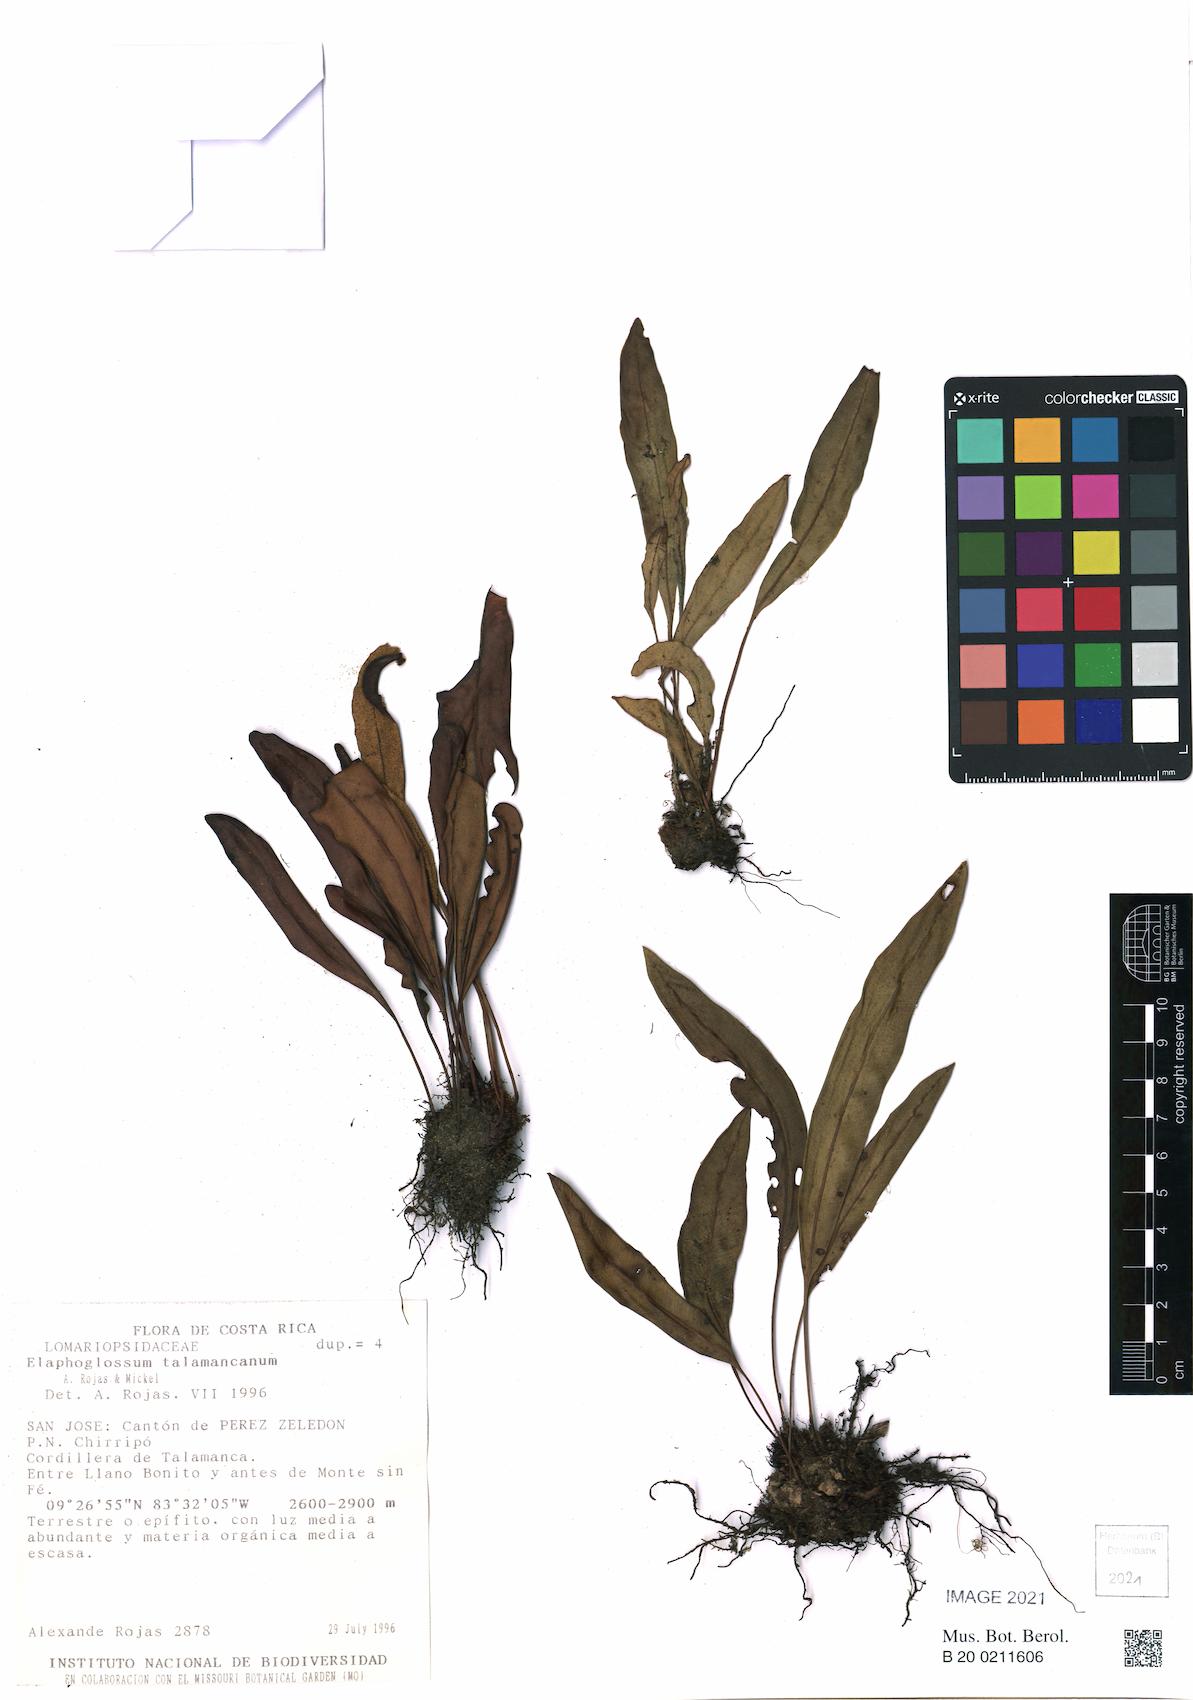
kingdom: Plantae
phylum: Tracheophyta
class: Polypodiopsida
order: Polypodiales
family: Dryopteridaceae
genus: Elaphoglossum
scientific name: Elaphoglossum talamancanum
